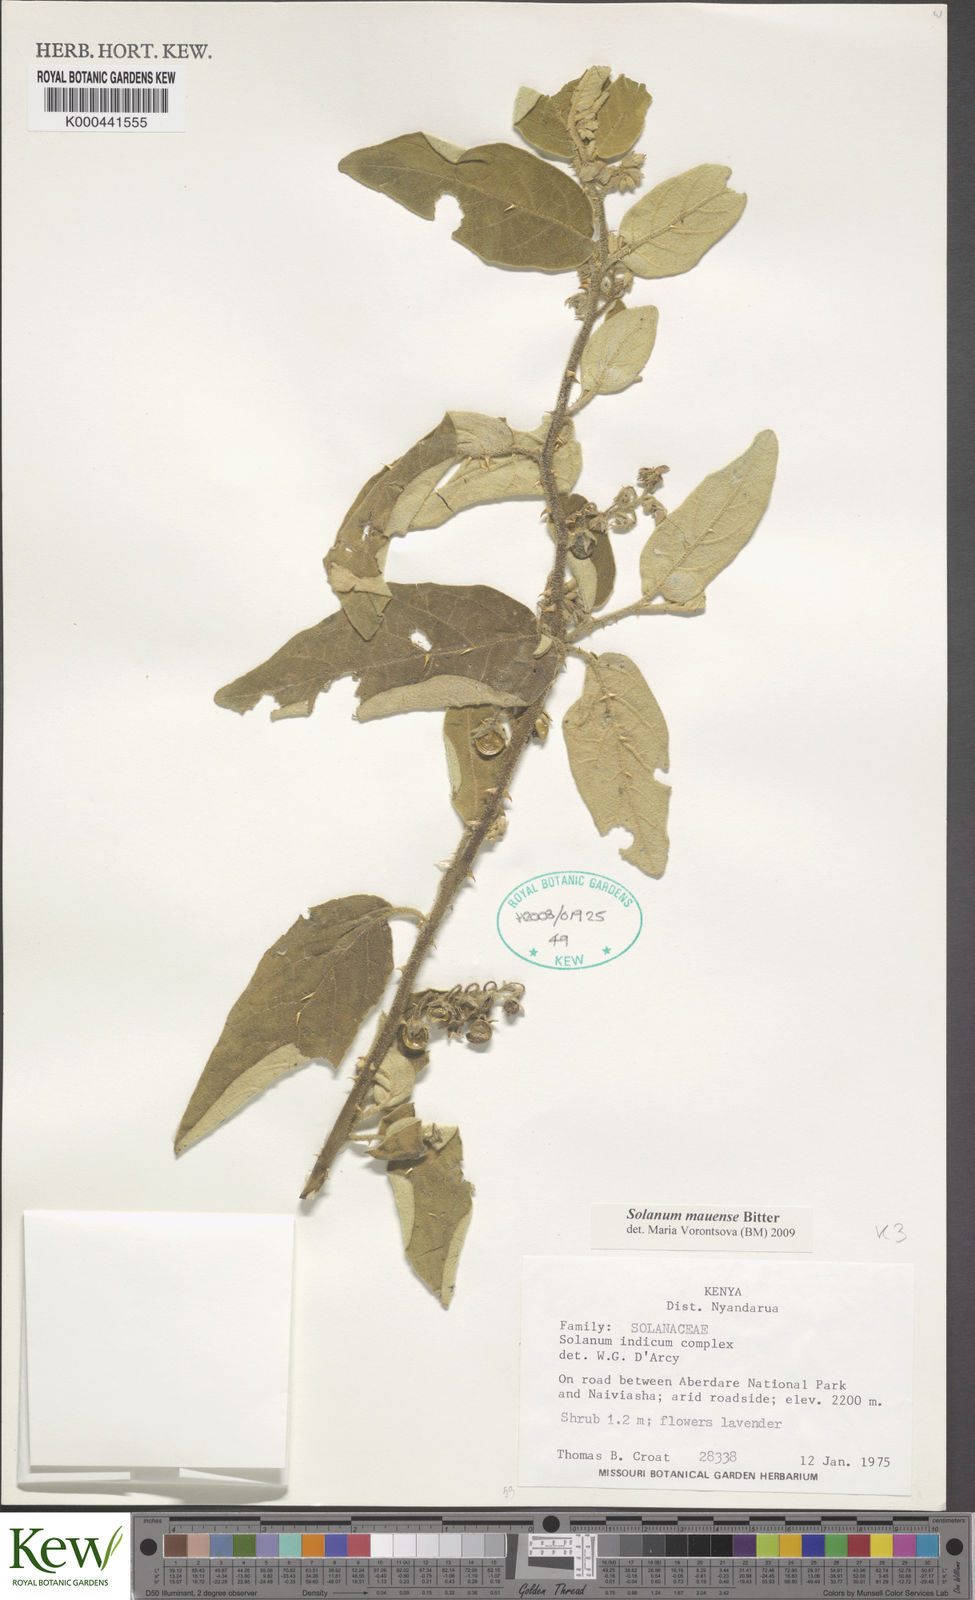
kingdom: Plantae
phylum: Tracheophyta
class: Magnoliopsida
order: Solanales
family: Solanaceae
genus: Solanum
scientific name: Solanum mauense
